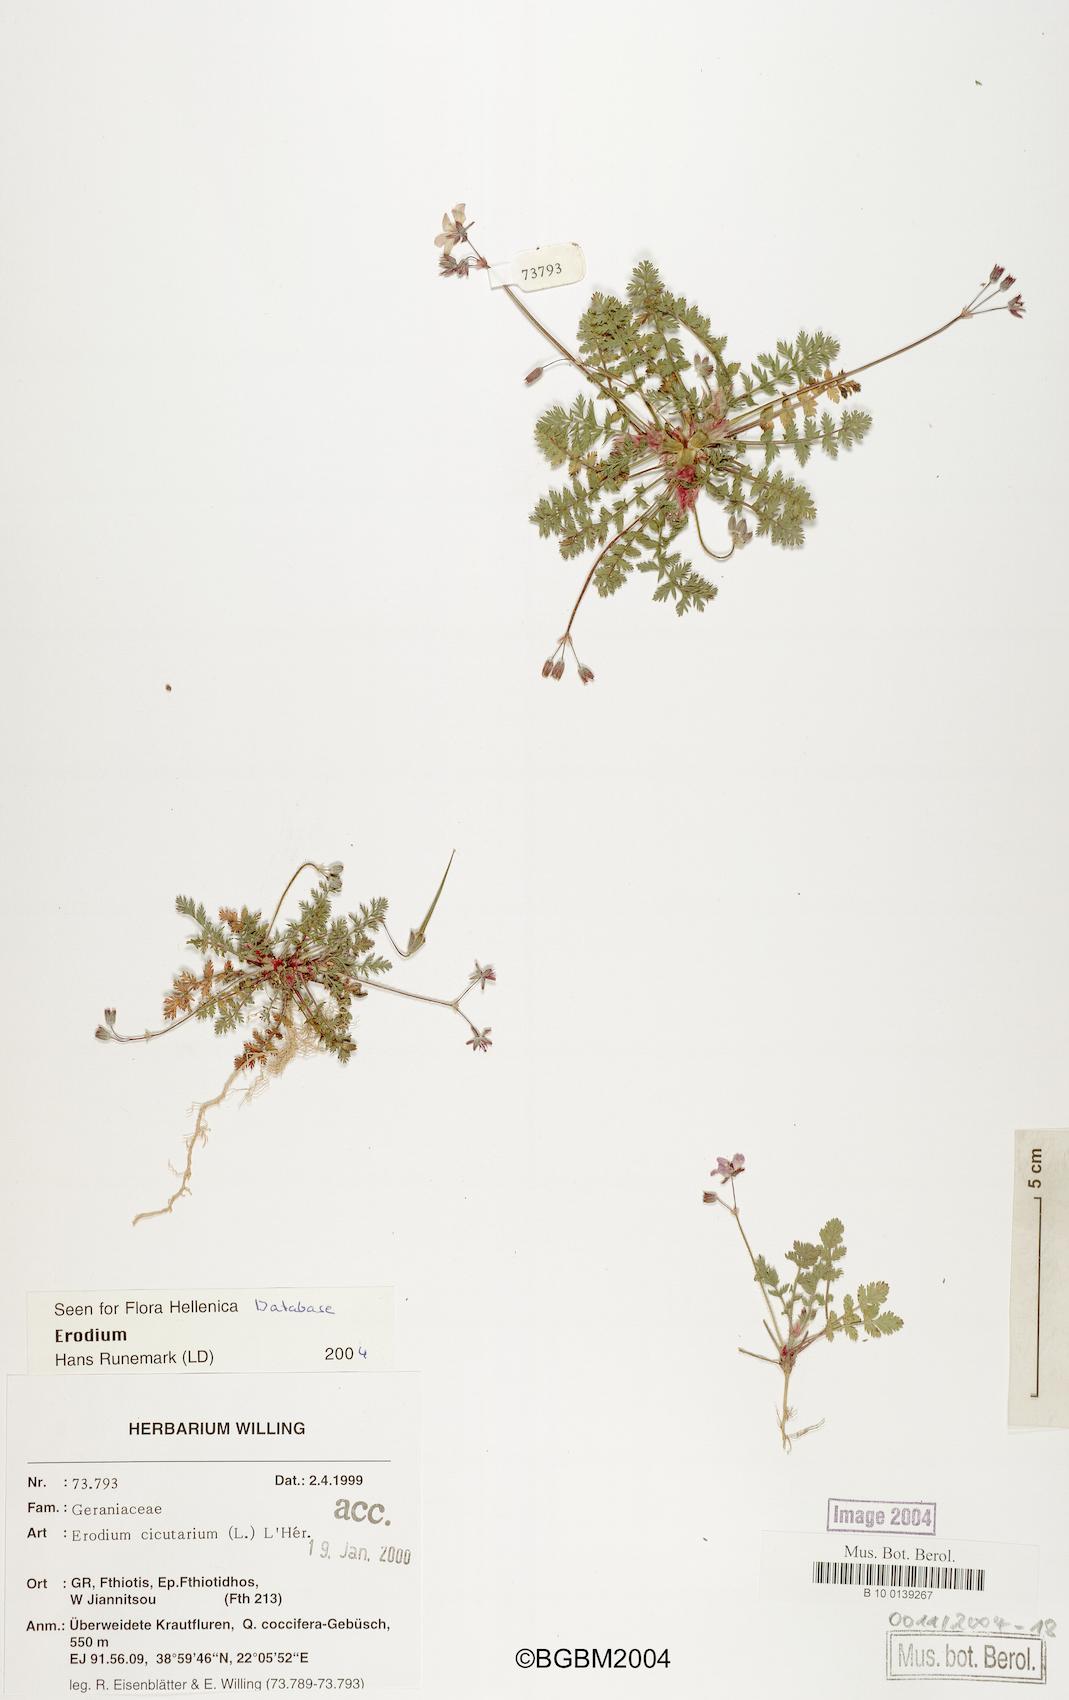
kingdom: Plantae
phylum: Tracheophyta
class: Magnoliopsida
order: Geraniales
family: Geraniaceae
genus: Erodium
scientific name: Erodium cicutarium
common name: Common stork's-bill
